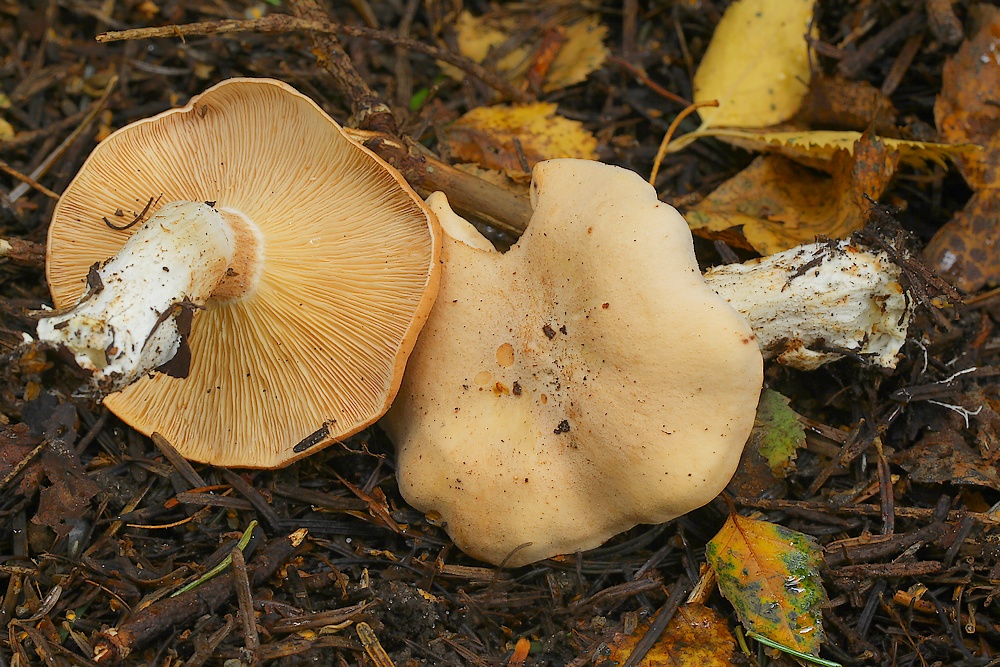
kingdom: Fungi
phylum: Basidiomycota
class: Agaricomycetes
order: Agaricales
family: Tricholomataceae
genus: Paralepista
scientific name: Paralepista
